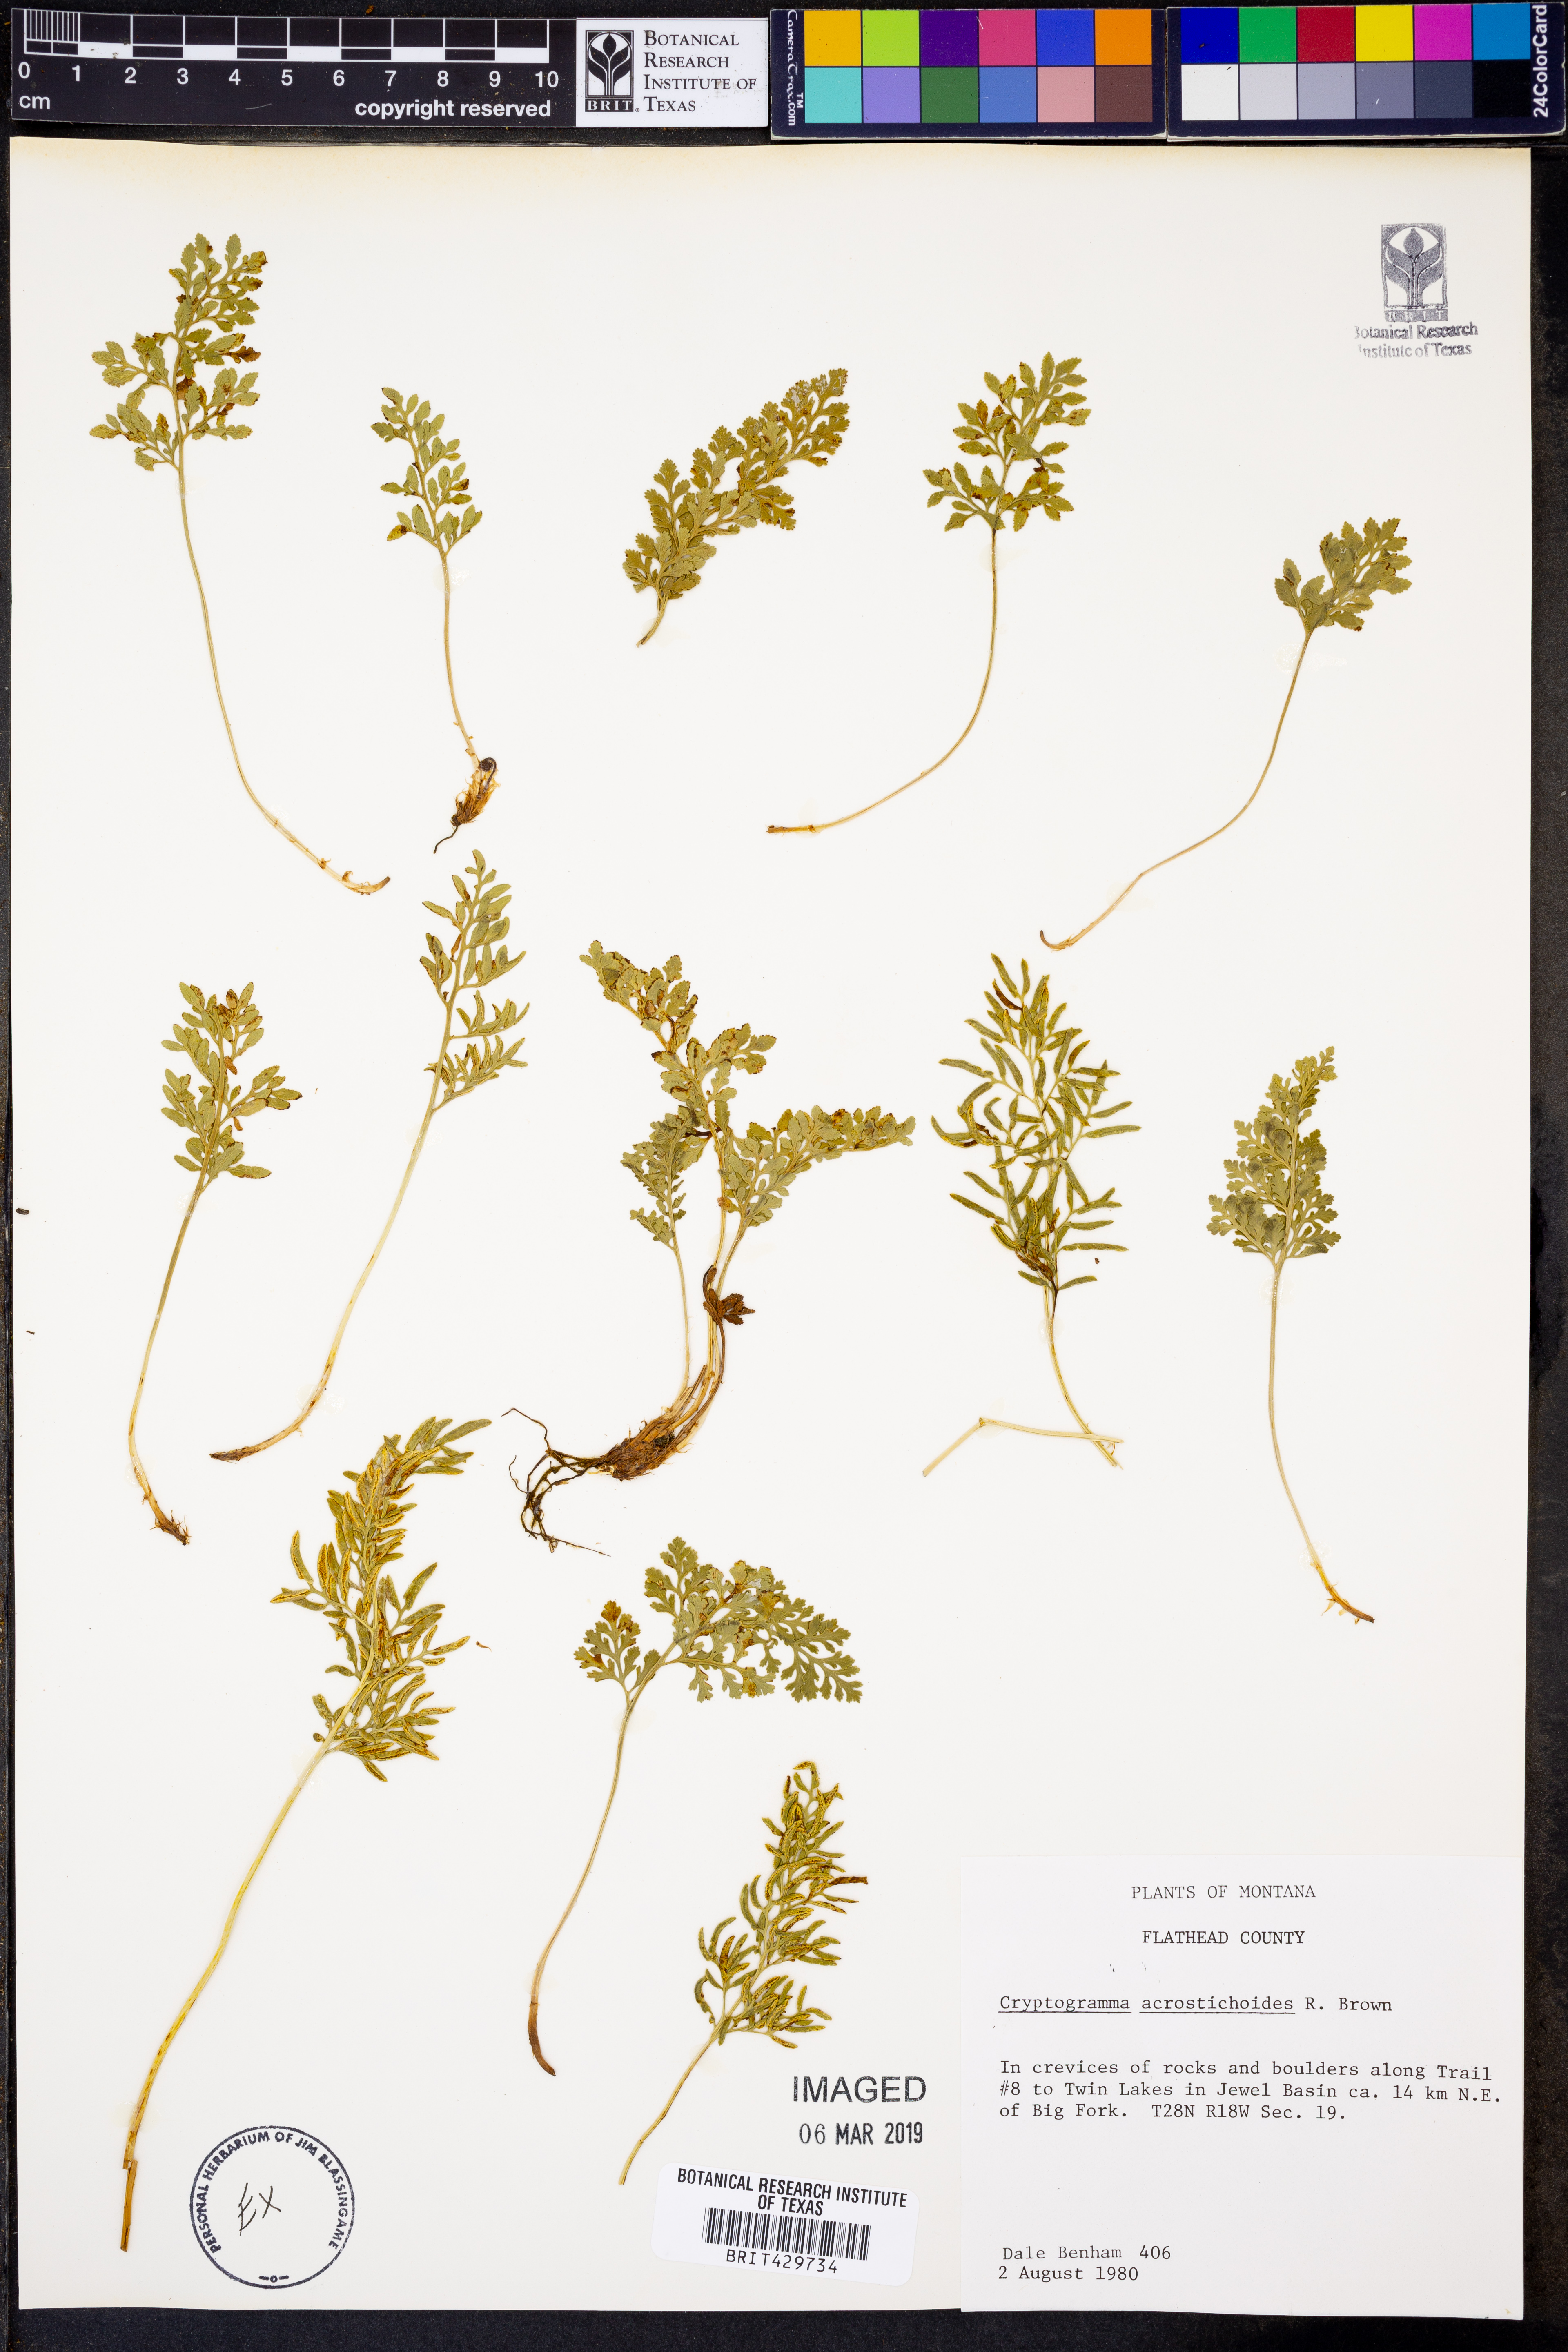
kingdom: Plantae
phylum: Tracheophyta
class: Polypodiopsida
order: Polypodiales
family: Pteridaceae
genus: Cryptogramma
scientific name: Cryptogramma acrostichoides
